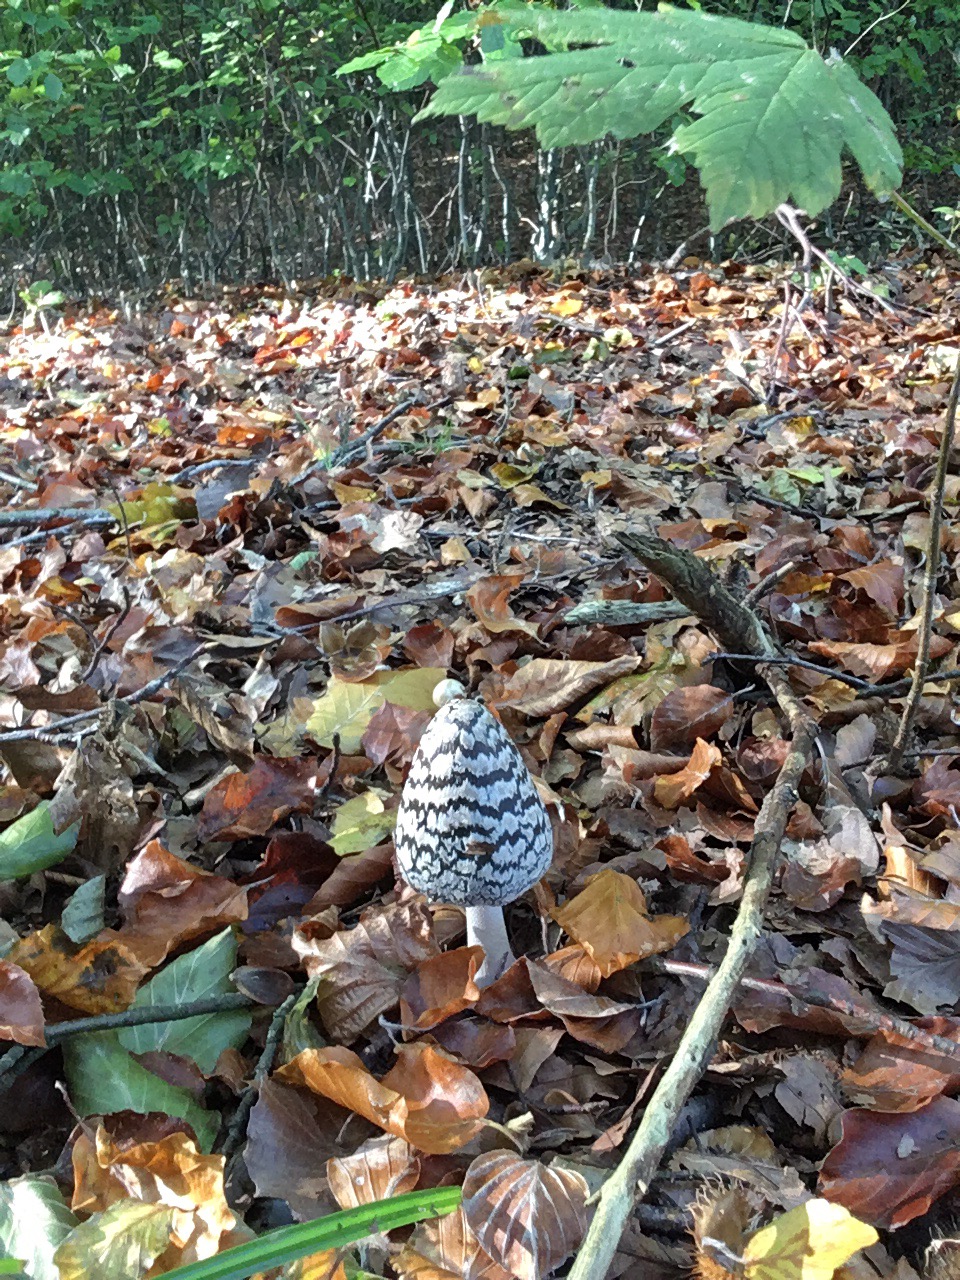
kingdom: Fungi
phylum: Basidiomycota
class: Agaricomycetes
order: Agaricales
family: Psathyrellaceae
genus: Coprinopsis
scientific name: Coprinopsis picacea
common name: skade-blækhat
